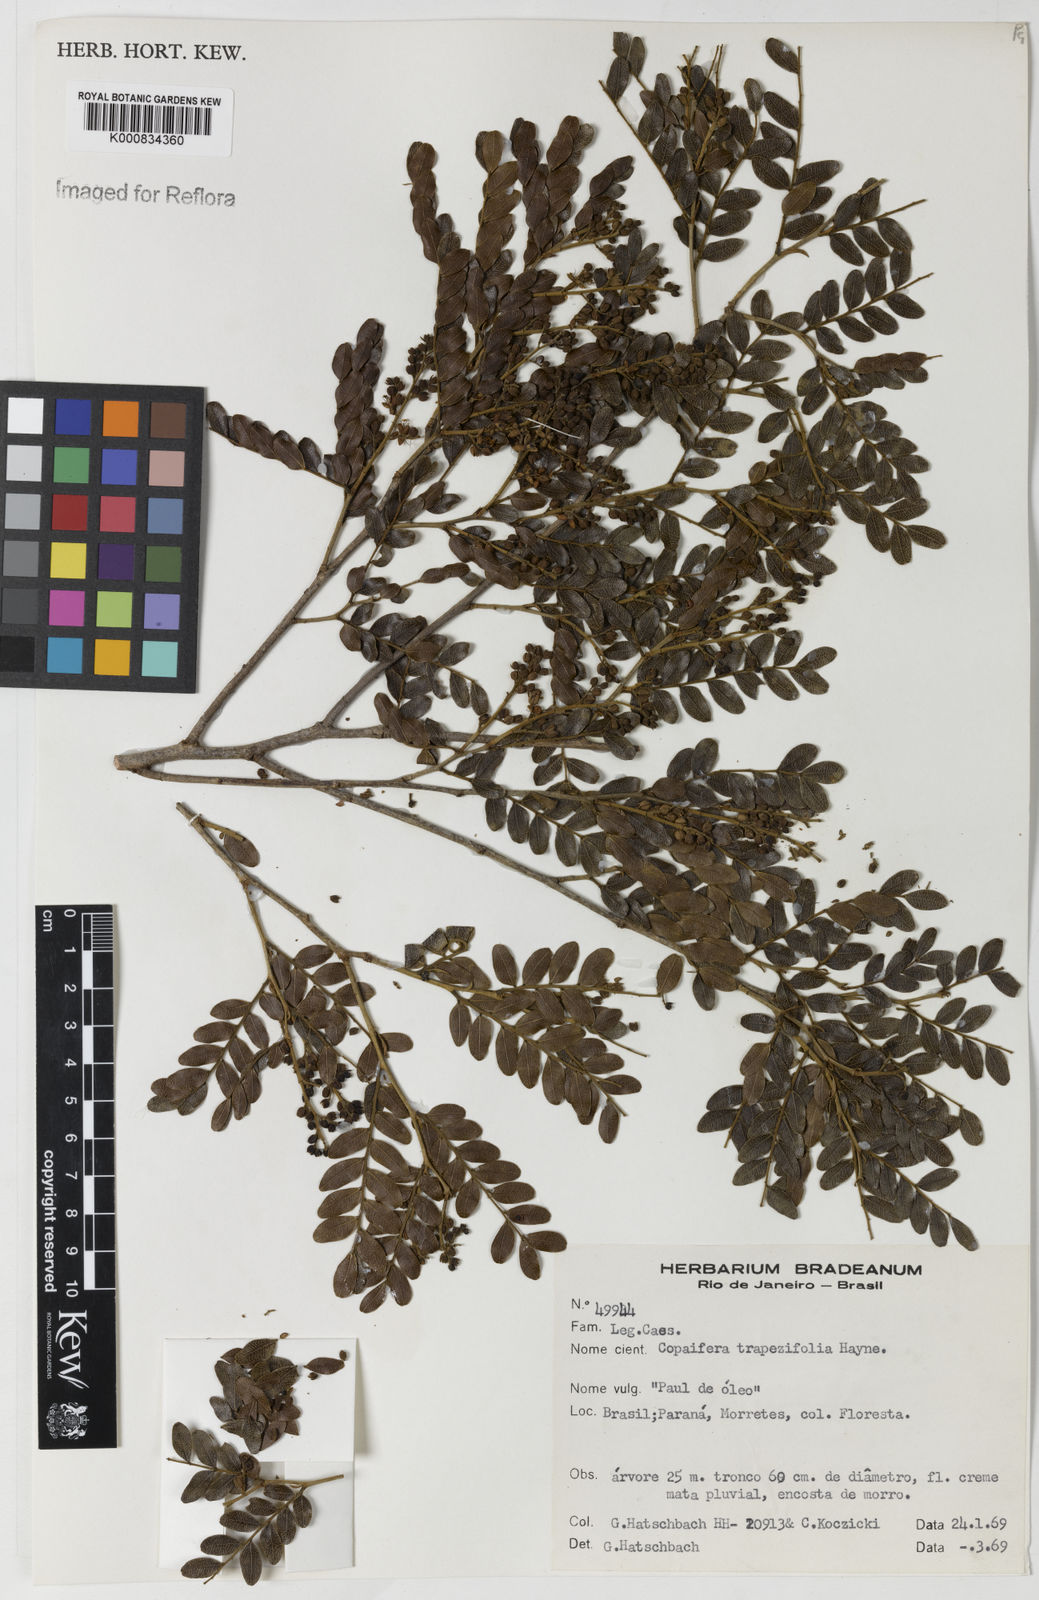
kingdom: Plantae
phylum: Tracheophyta
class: Magnoliopsida
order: Fabales
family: Fabaceae
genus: Copaifera
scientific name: Copaifera trapezifolia
